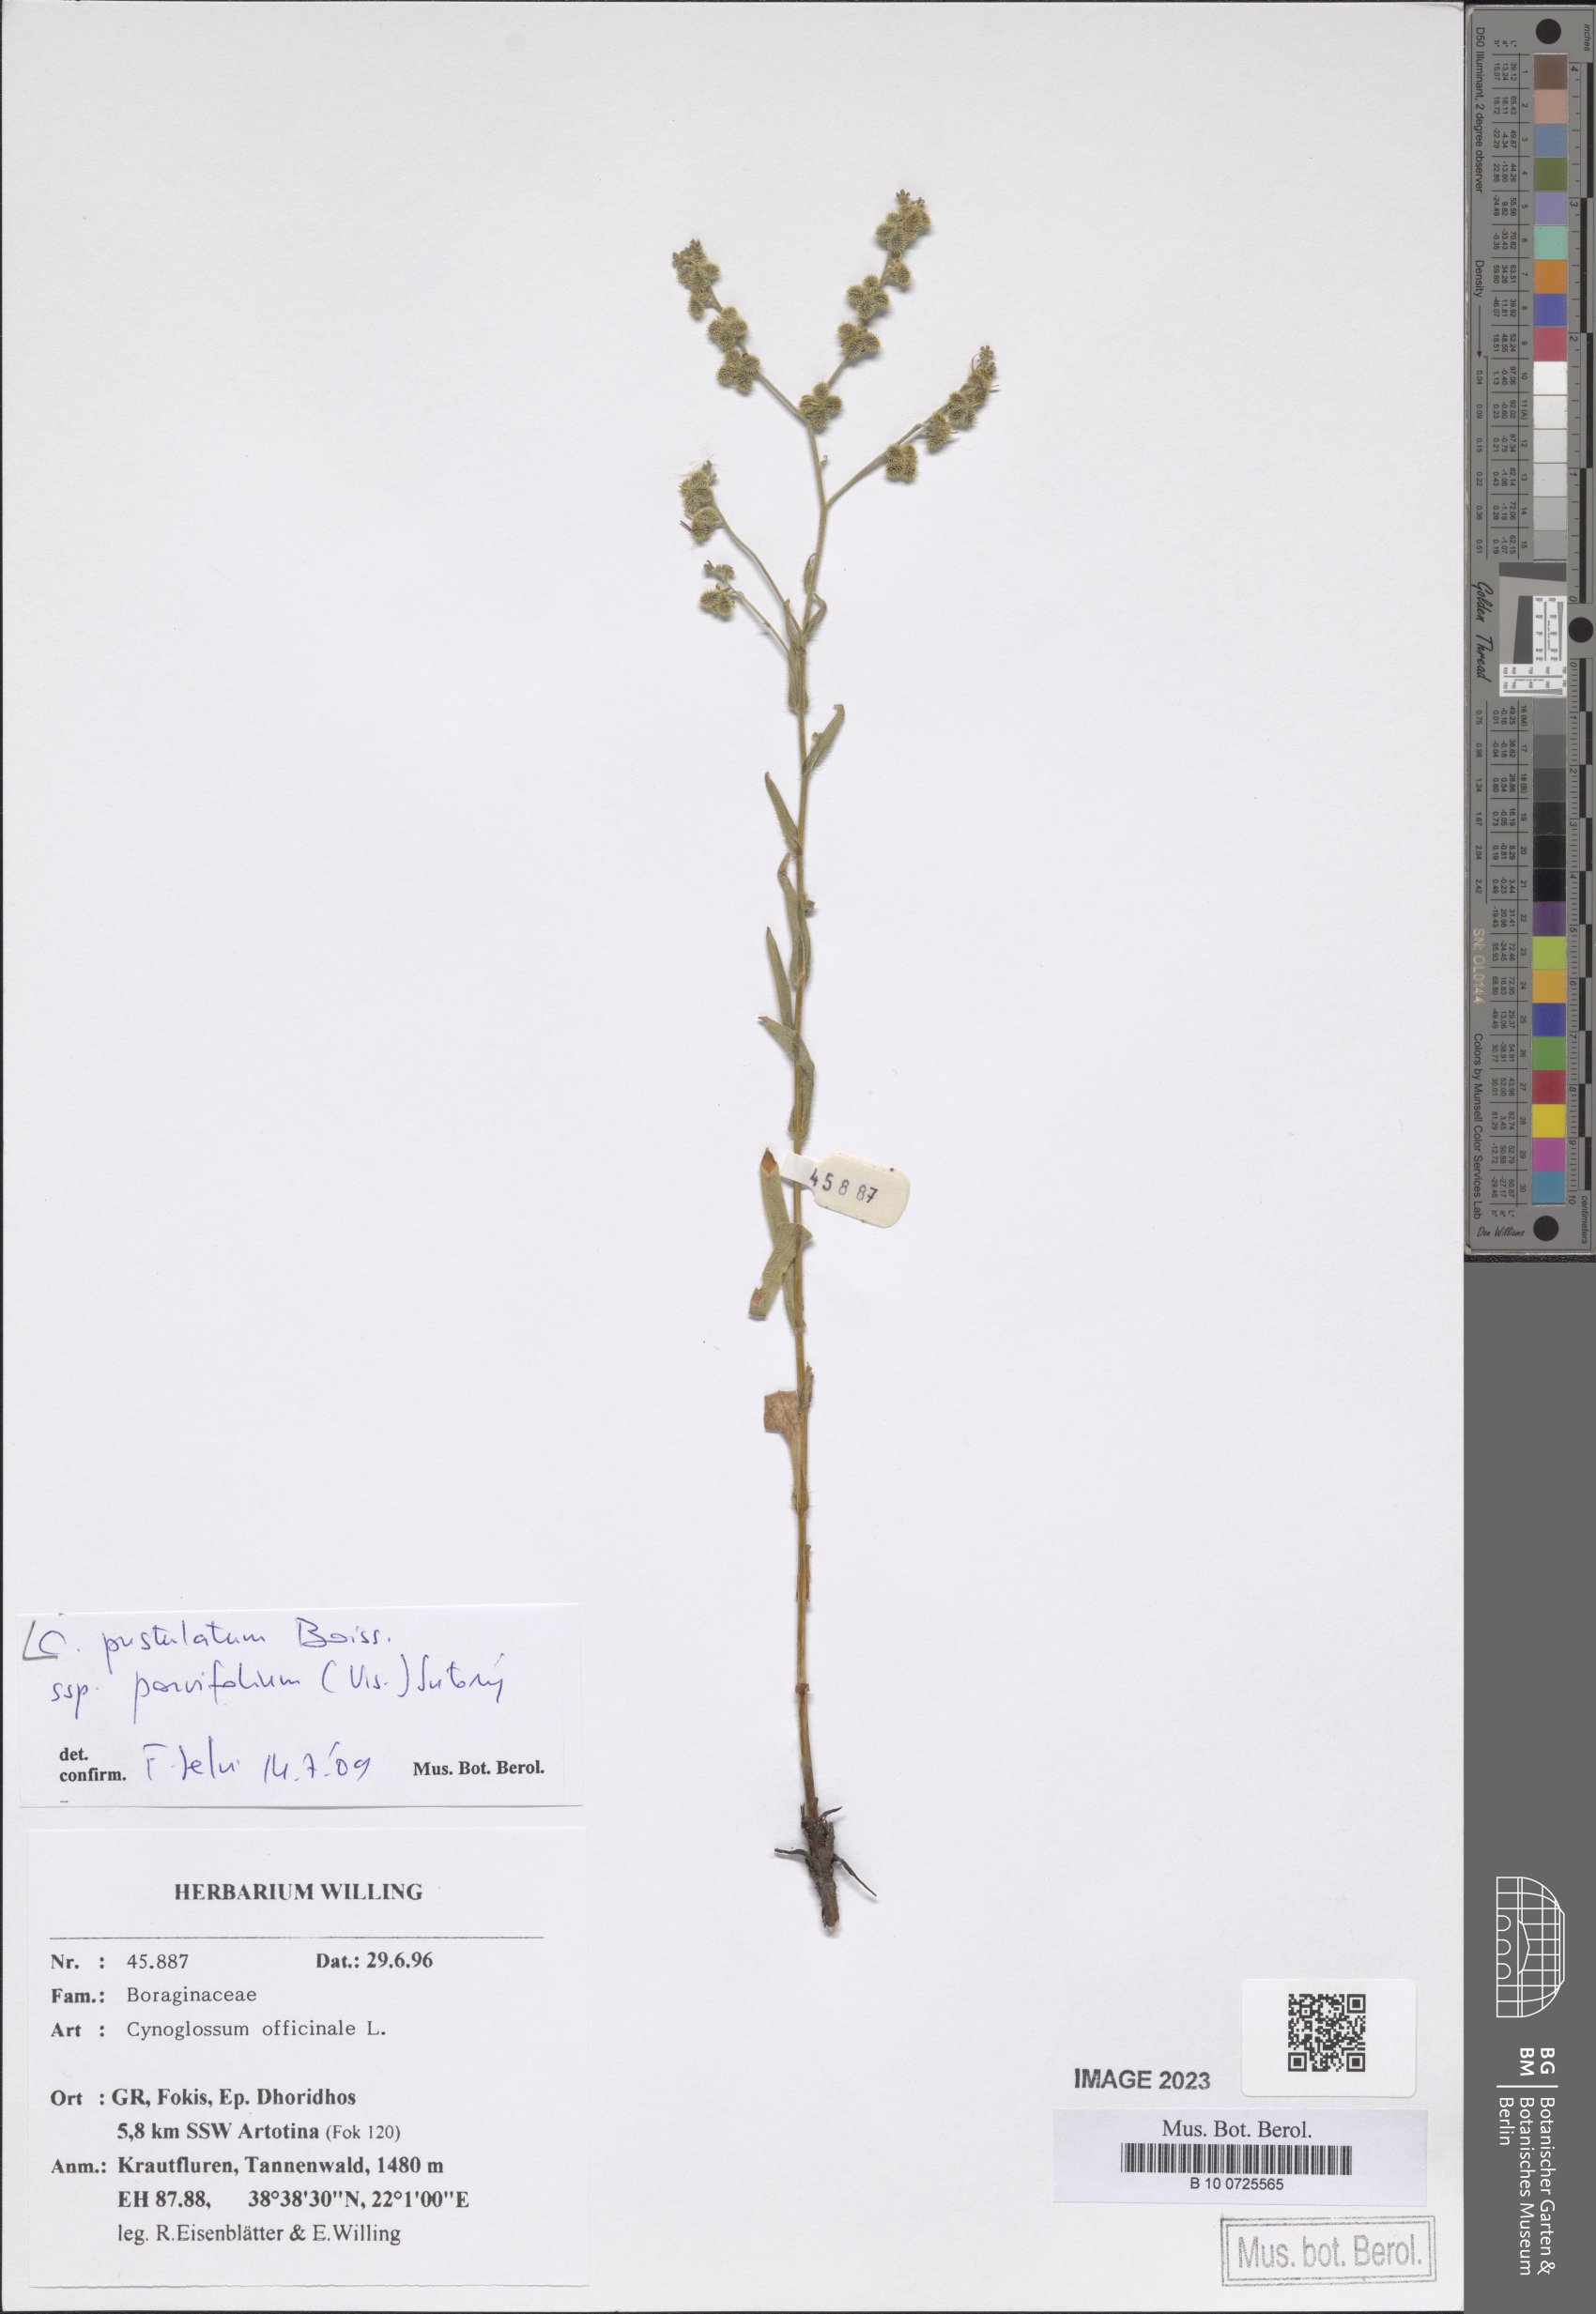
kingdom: Plantae
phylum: Tracheophyta
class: Magnoliopsida
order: Boraginales
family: Boraginaceae
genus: Cynoglossum
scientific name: Cynoglossum pustulatum
